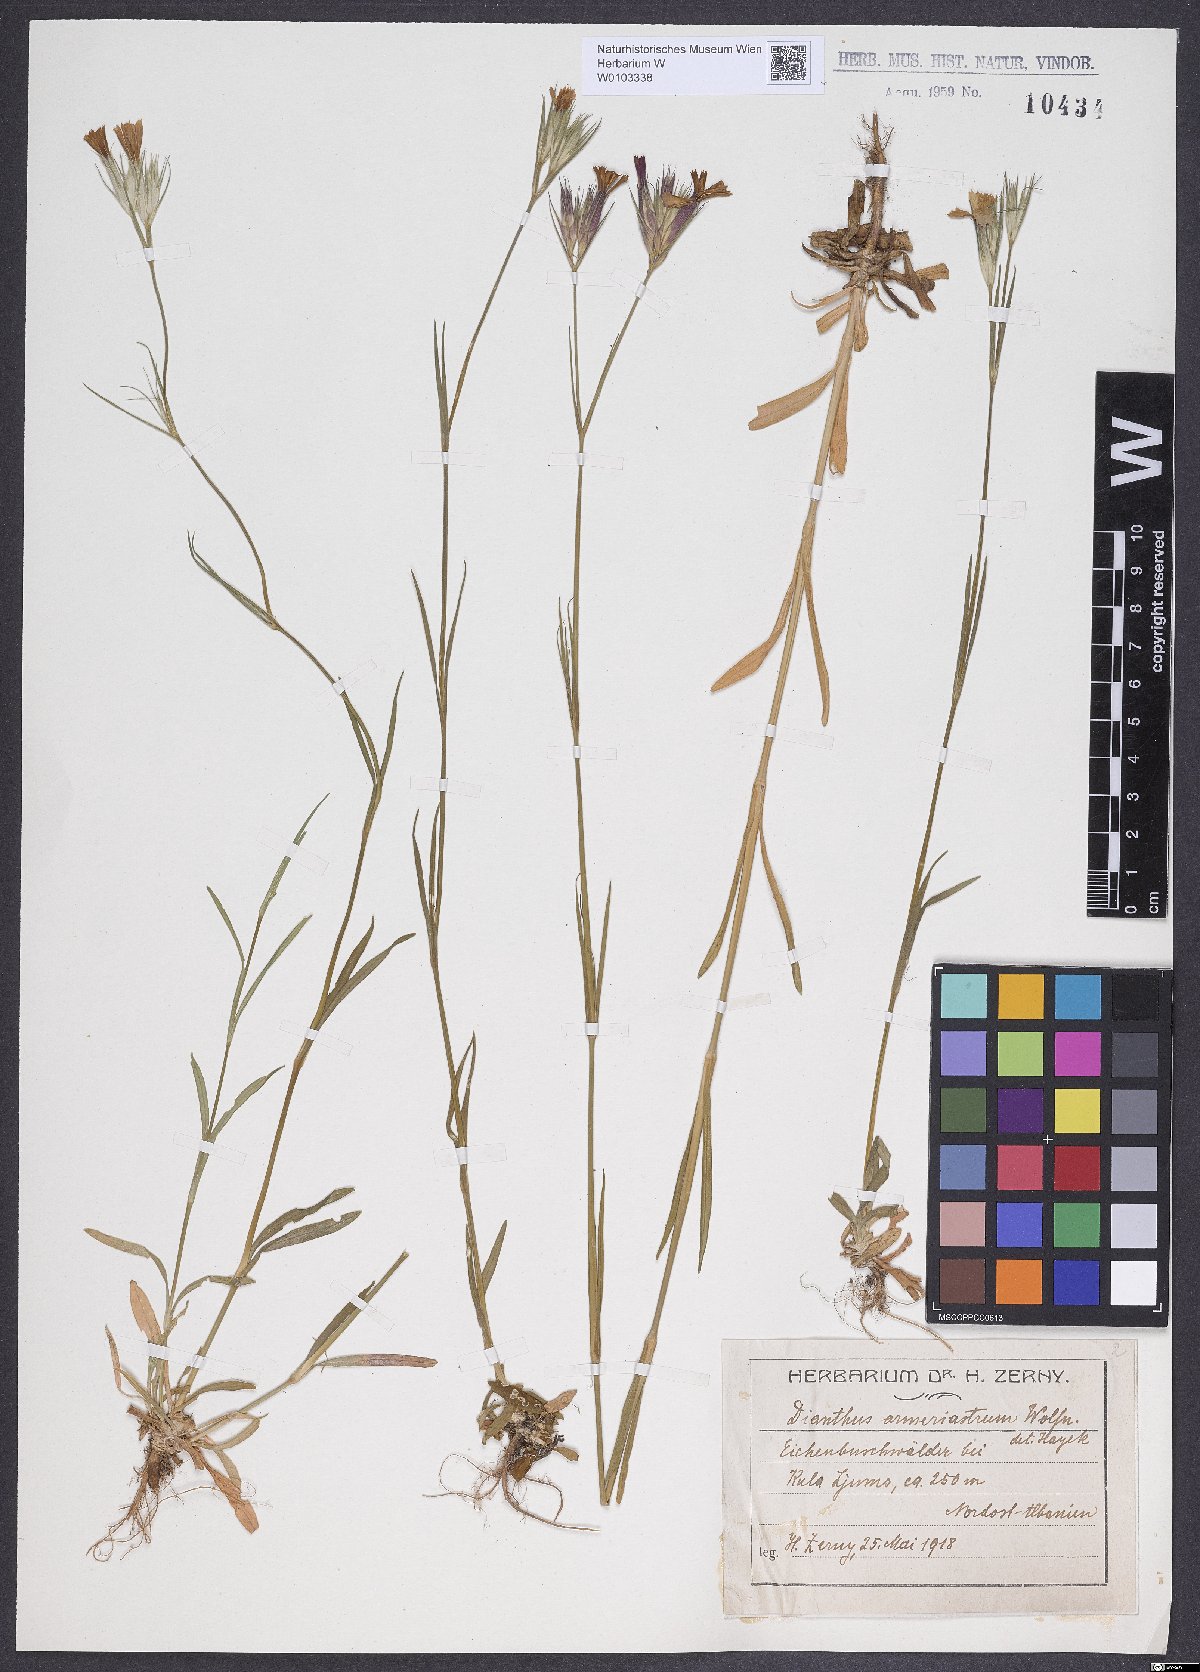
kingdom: Plantae
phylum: Tracheophyta
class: Magnoliopsida
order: Caryophyllales
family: Caryophyllaceae
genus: Dianthus
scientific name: Dianthus armeria
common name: Deptford pink
